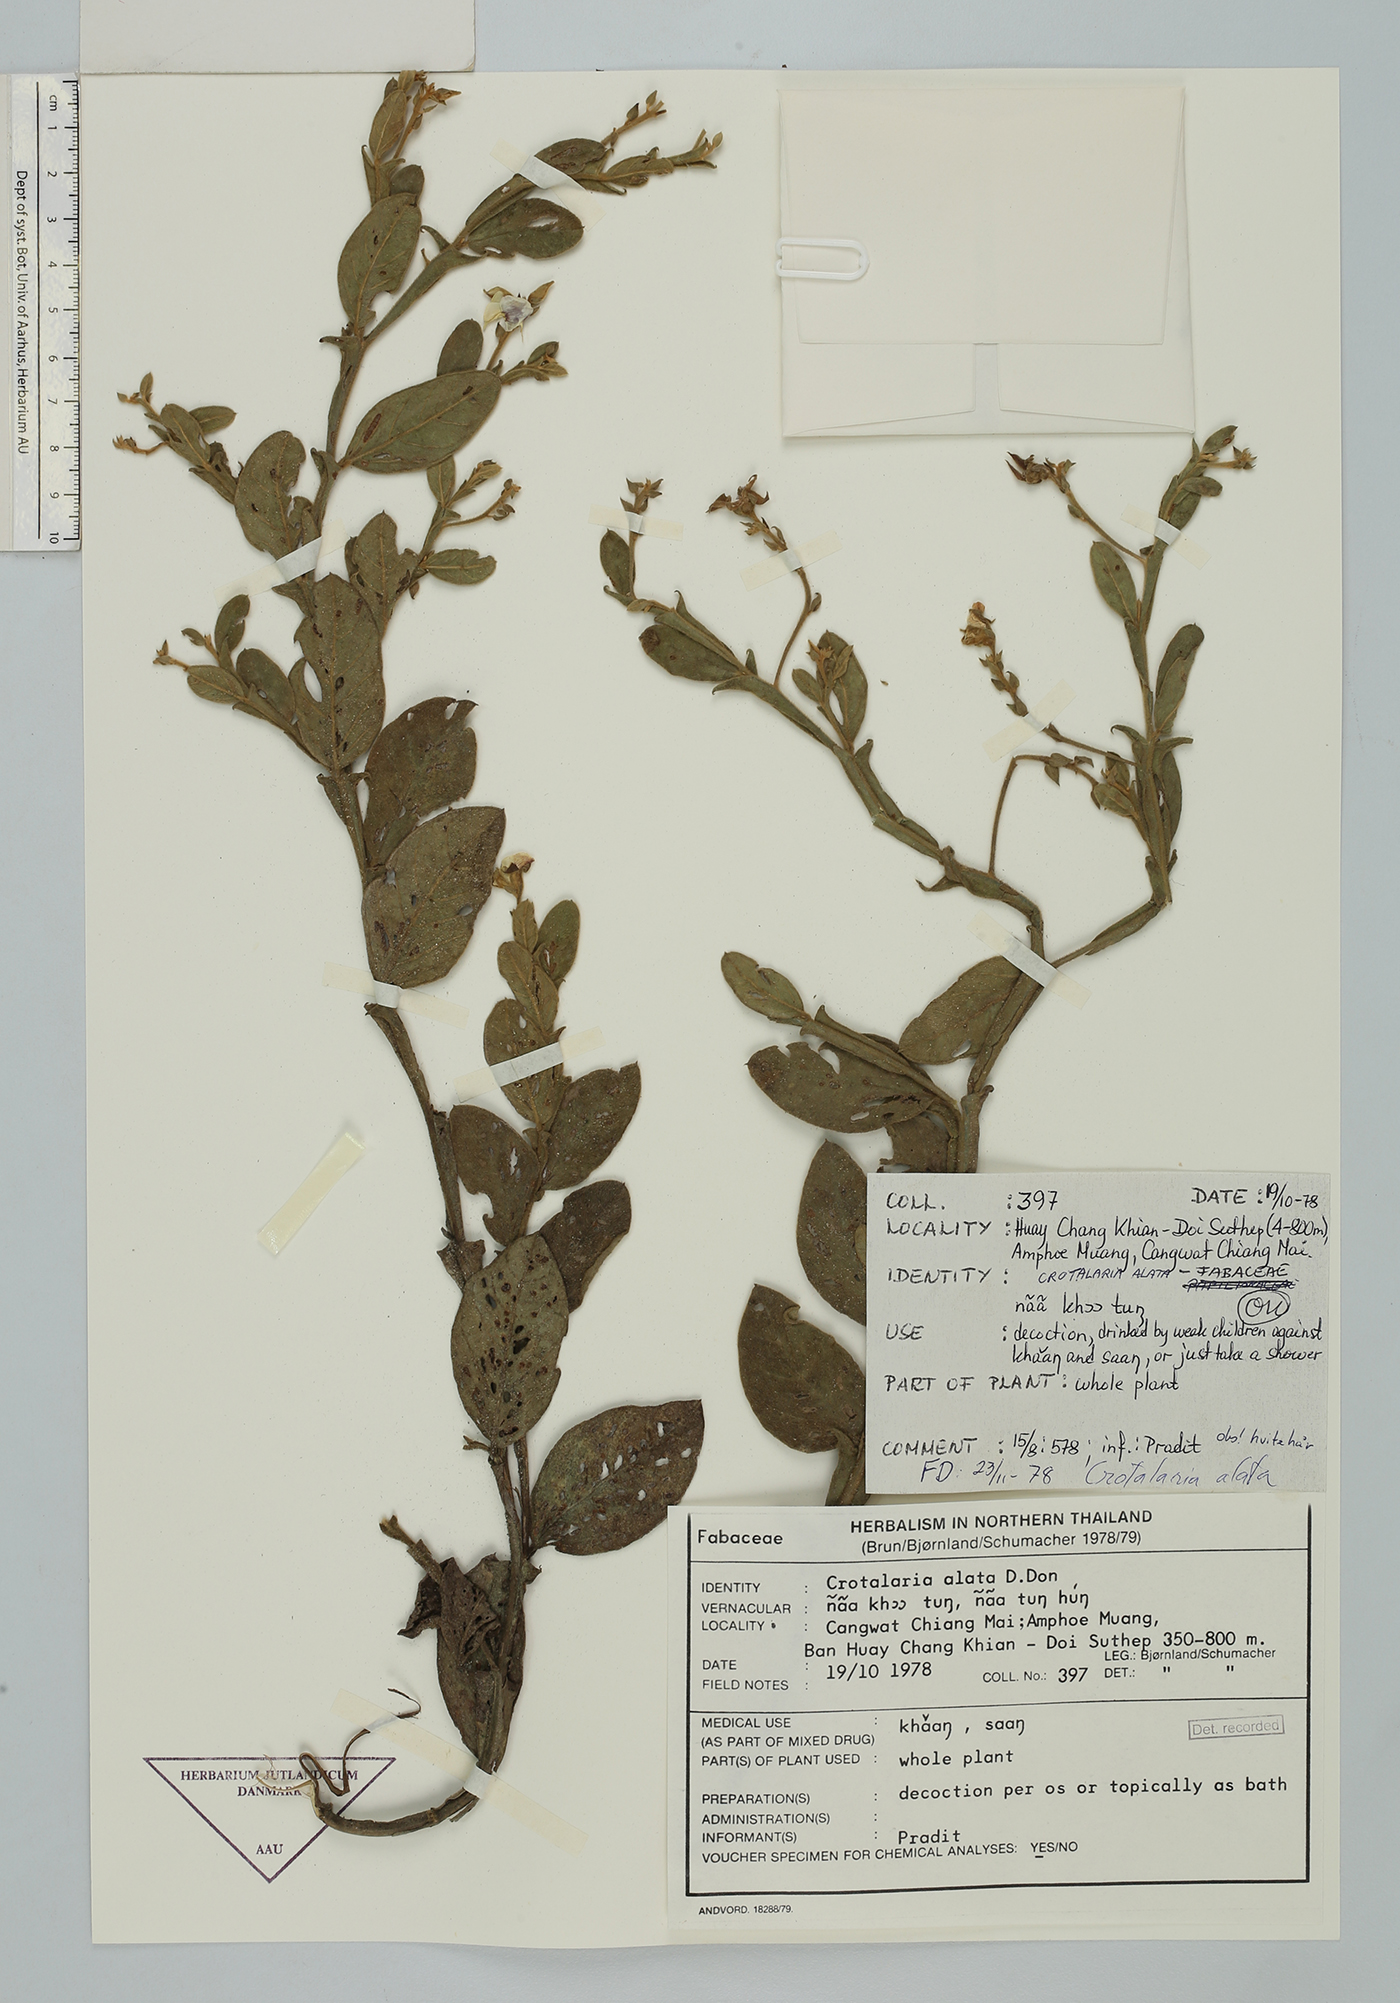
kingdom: Plantae
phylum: Tracheophyta
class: Magnoliopsida
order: Fabales
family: Fabaceae
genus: Crotalaria
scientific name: Crotalaria alata
